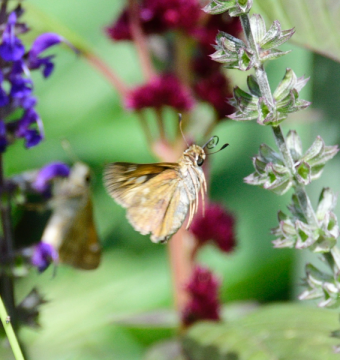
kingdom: Animalia
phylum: Arthropoda
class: Insecta
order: Lepidoptera
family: Hesperiidae
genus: Wallengrenia
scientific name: Wallengrenia otho
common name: Southern Broken-Dash
